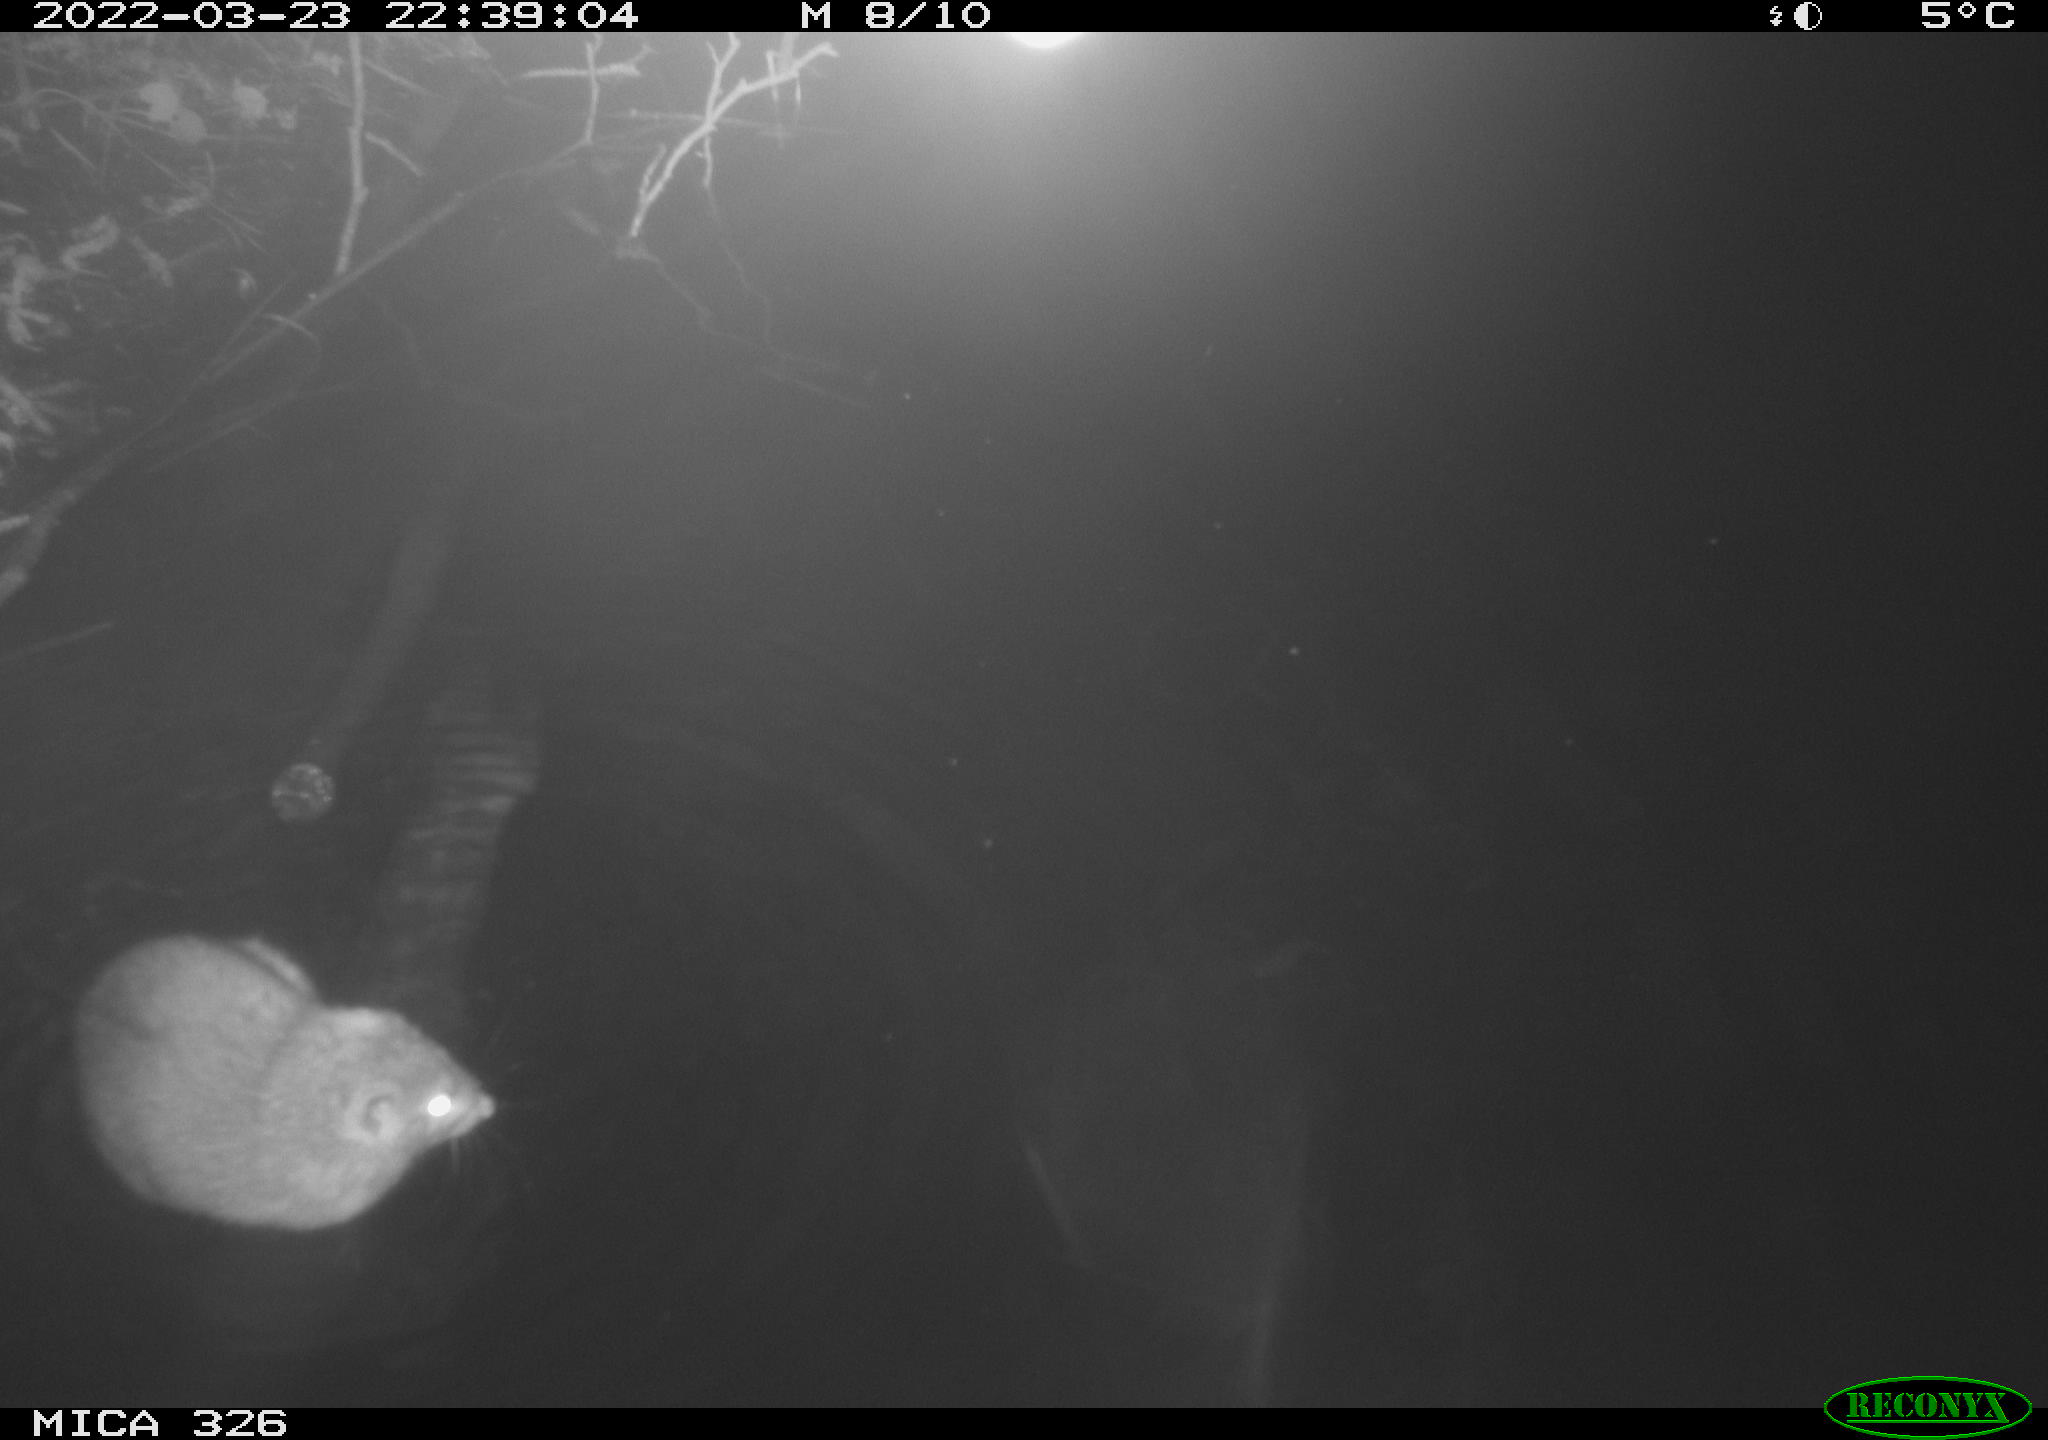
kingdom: Animalia
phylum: Chordata
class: Mammalia
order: Rodentia
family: Muridae
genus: Rattus
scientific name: Rattus norvegicus
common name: Brown rat
